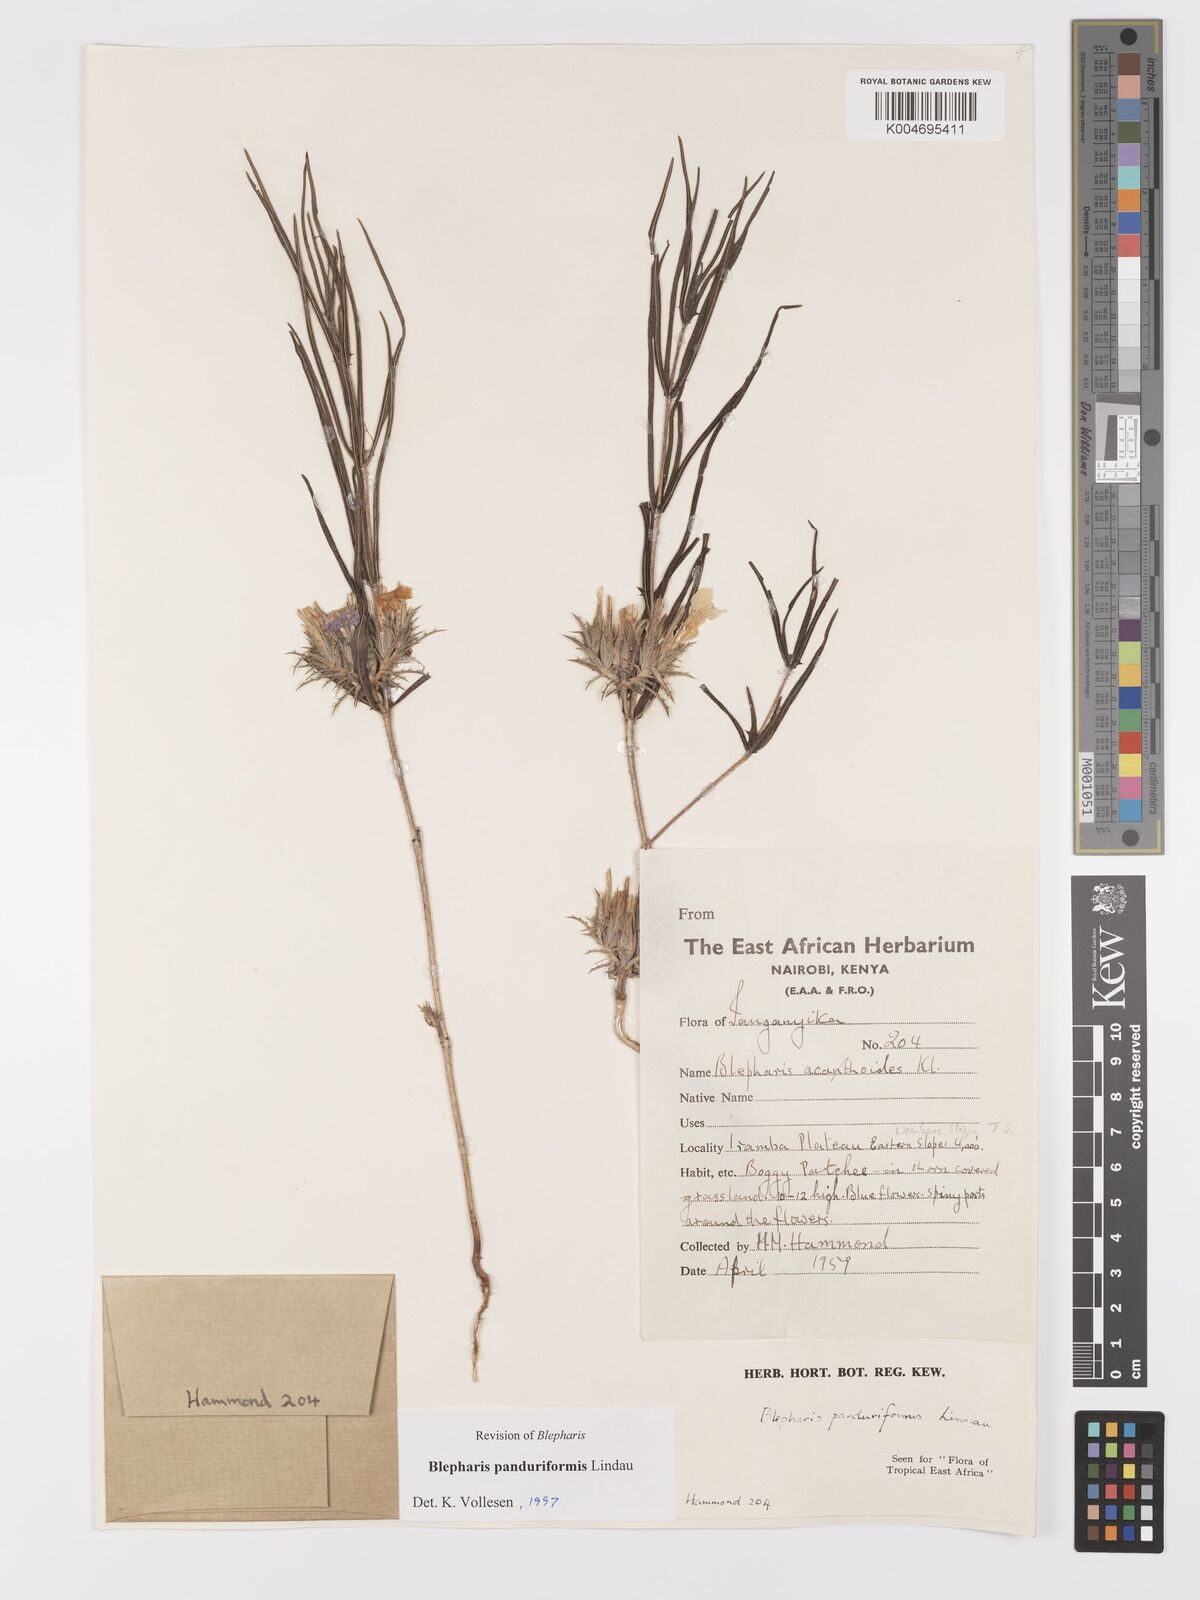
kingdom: Plantae
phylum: Tracheophyta
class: Magnoliopsida
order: Lamiales
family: Acanthaceae
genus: Blepharis
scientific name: Blepharis panduriformis
